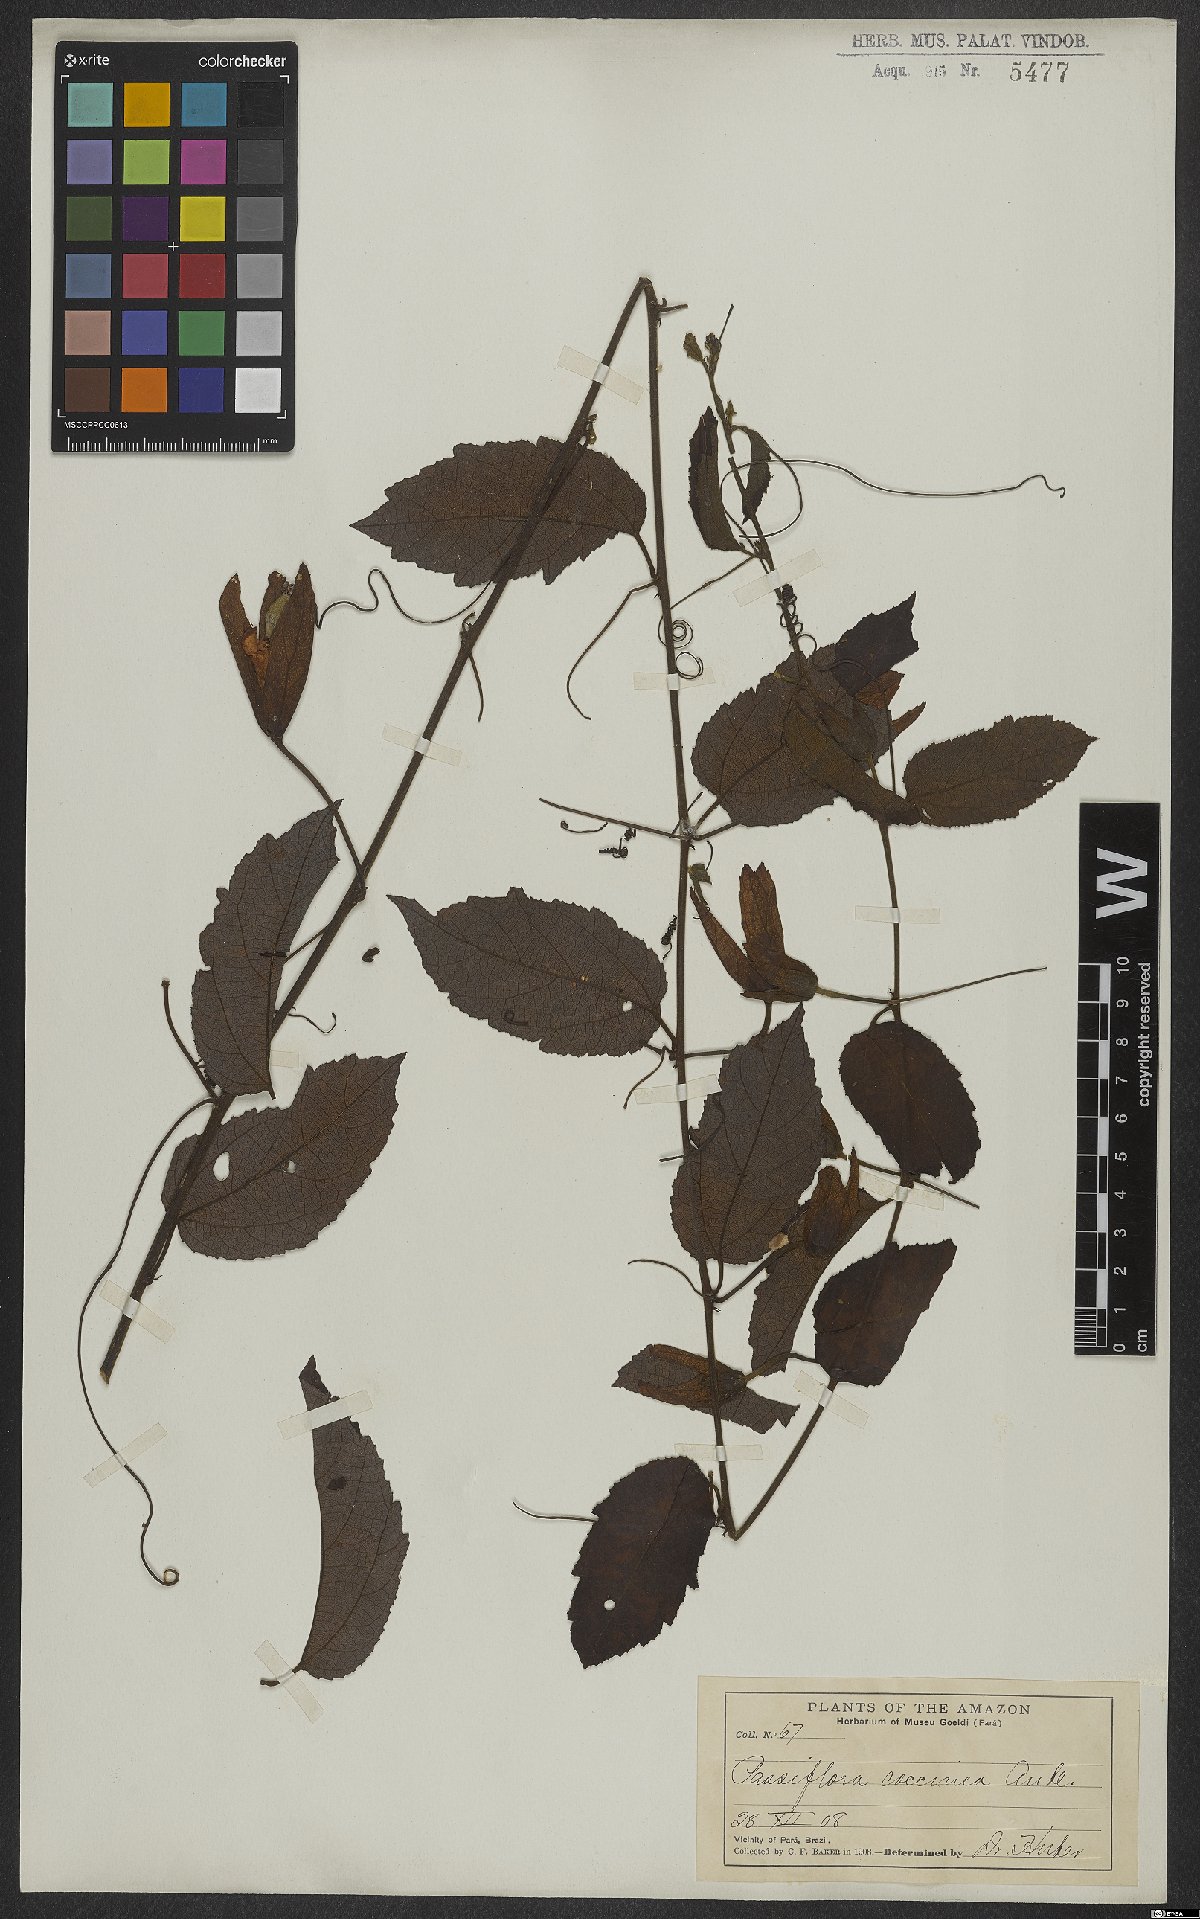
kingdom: Plantae
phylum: Tracheophyta
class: Magnoliopsida
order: Malpighiales
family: Passifloraceae
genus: Passiflora
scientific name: Passiflora coccinea
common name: Scarlet passionflower
